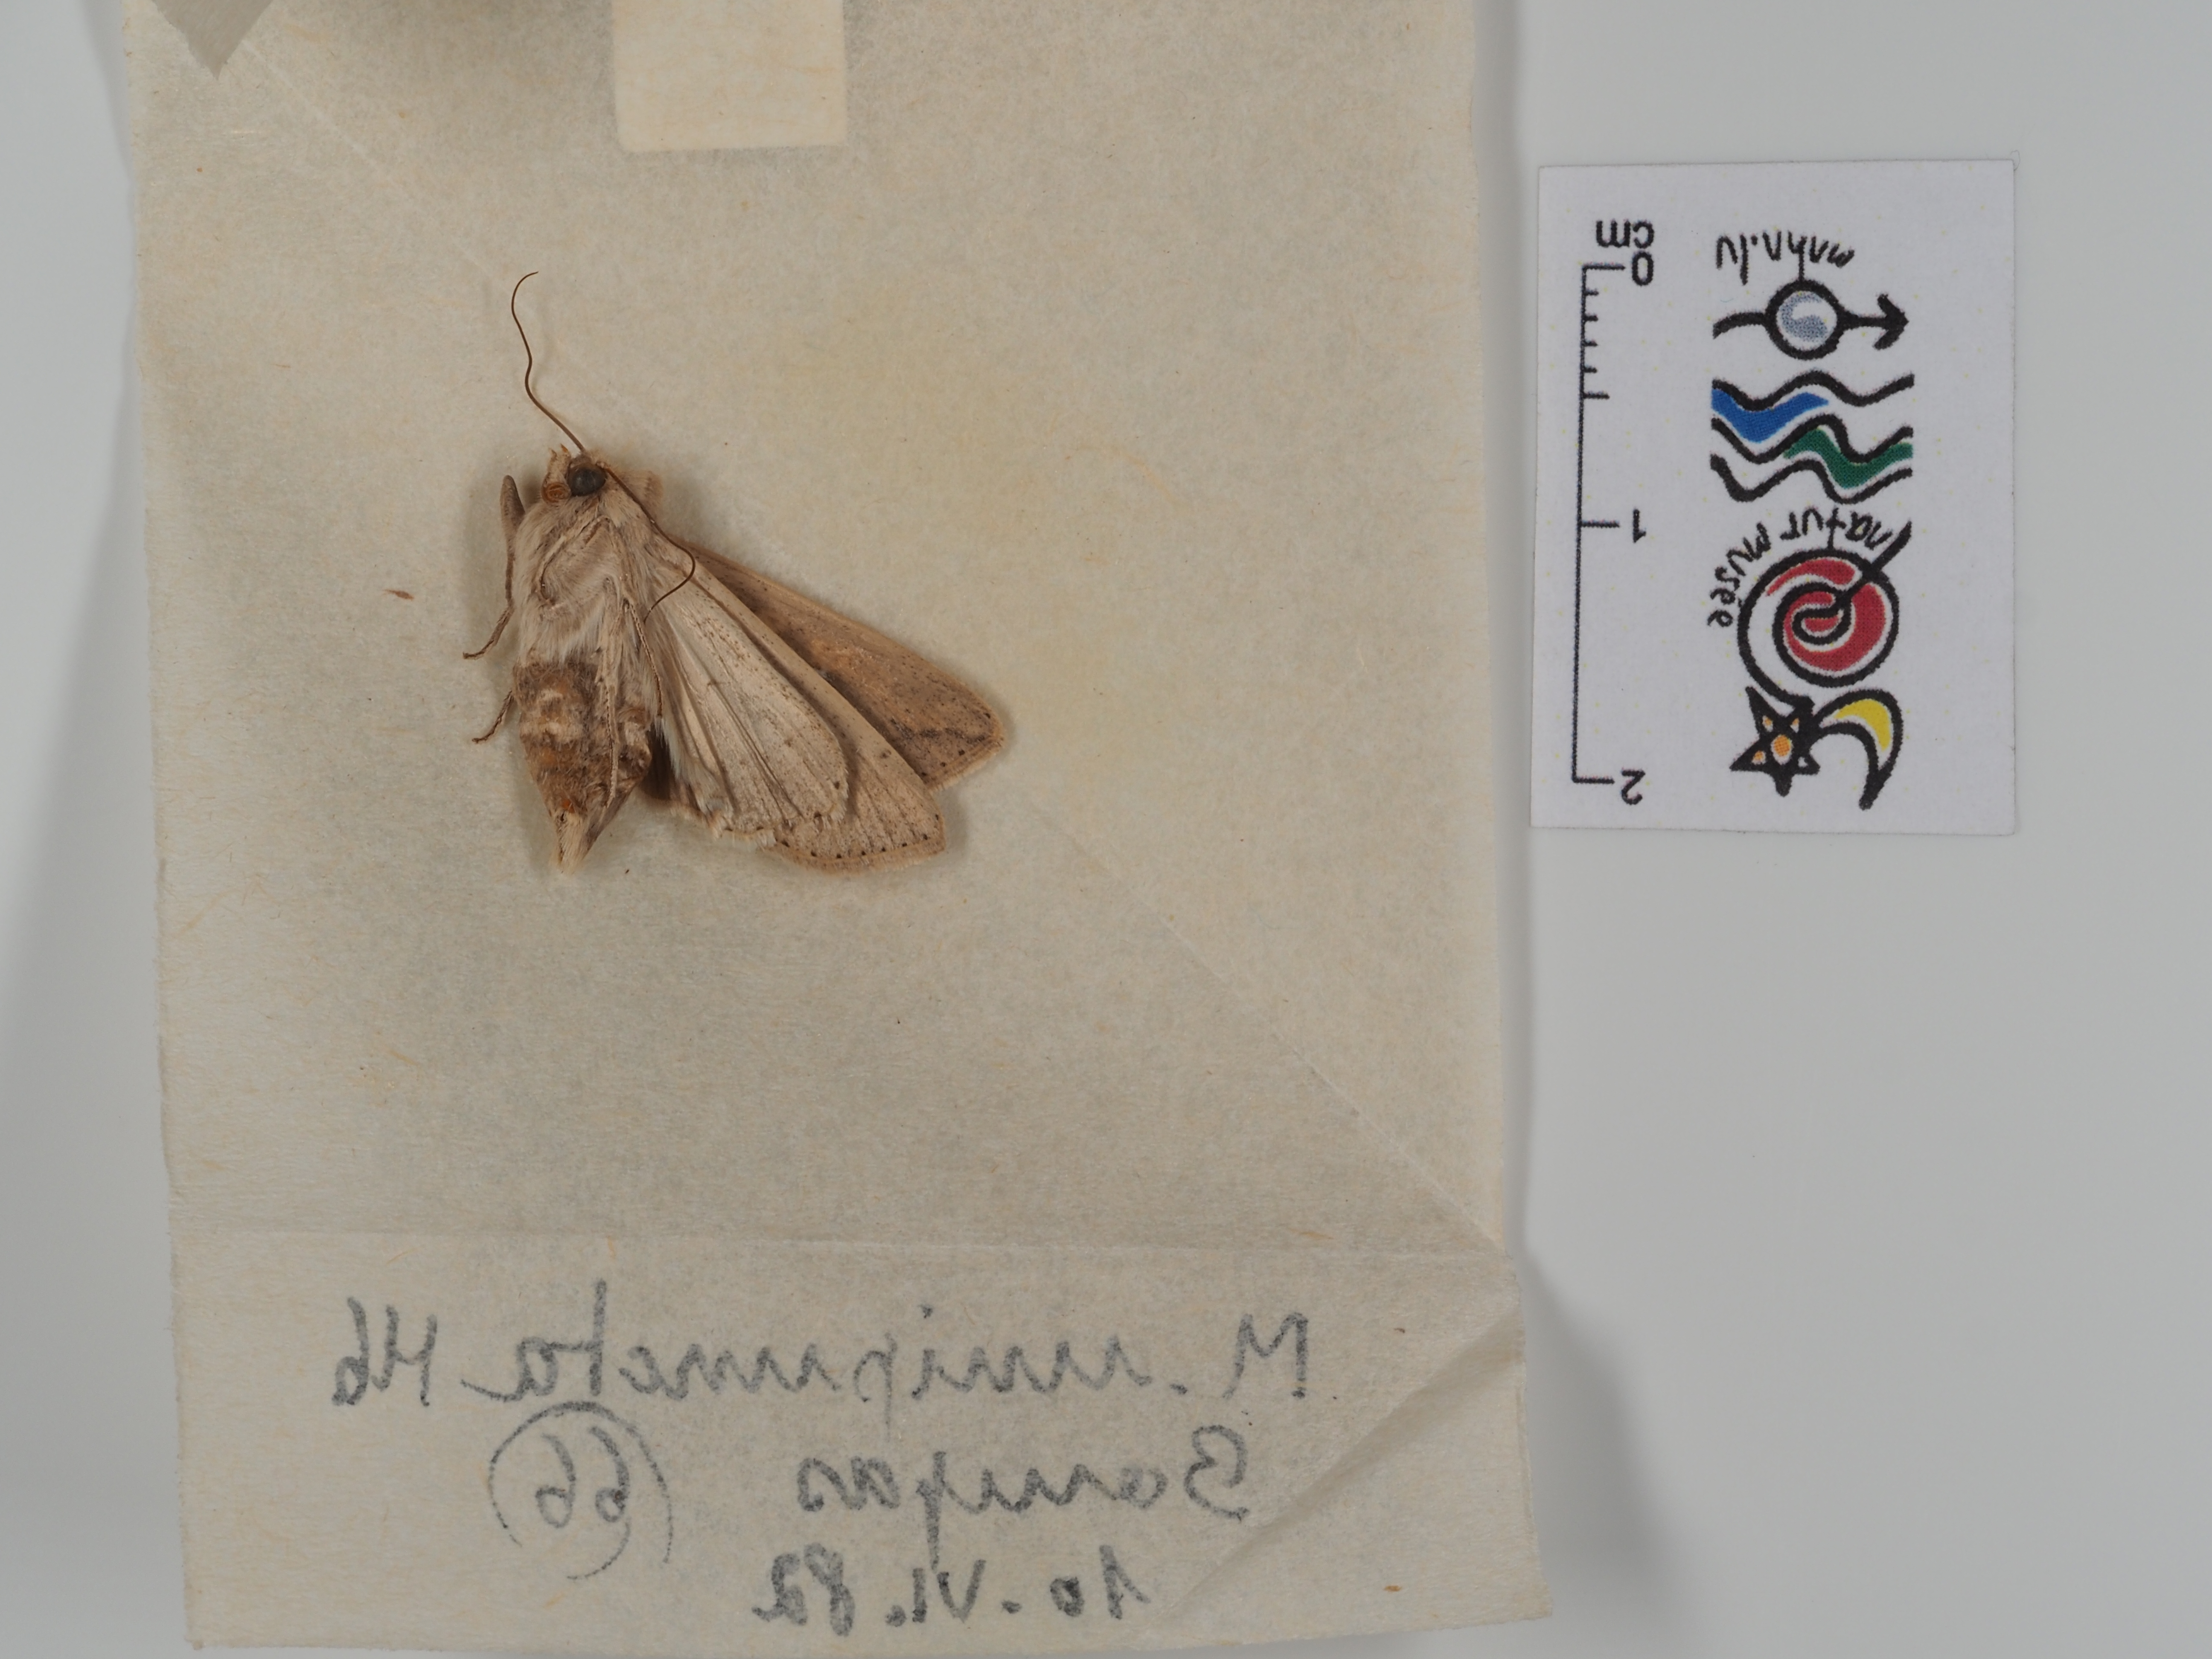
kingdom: Animalia
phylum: Arthropoda
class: Insecta
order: Lepidoptera
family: Noctuidae
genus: Mythimna
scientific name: Mythimna unipuncta
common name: White-speck
